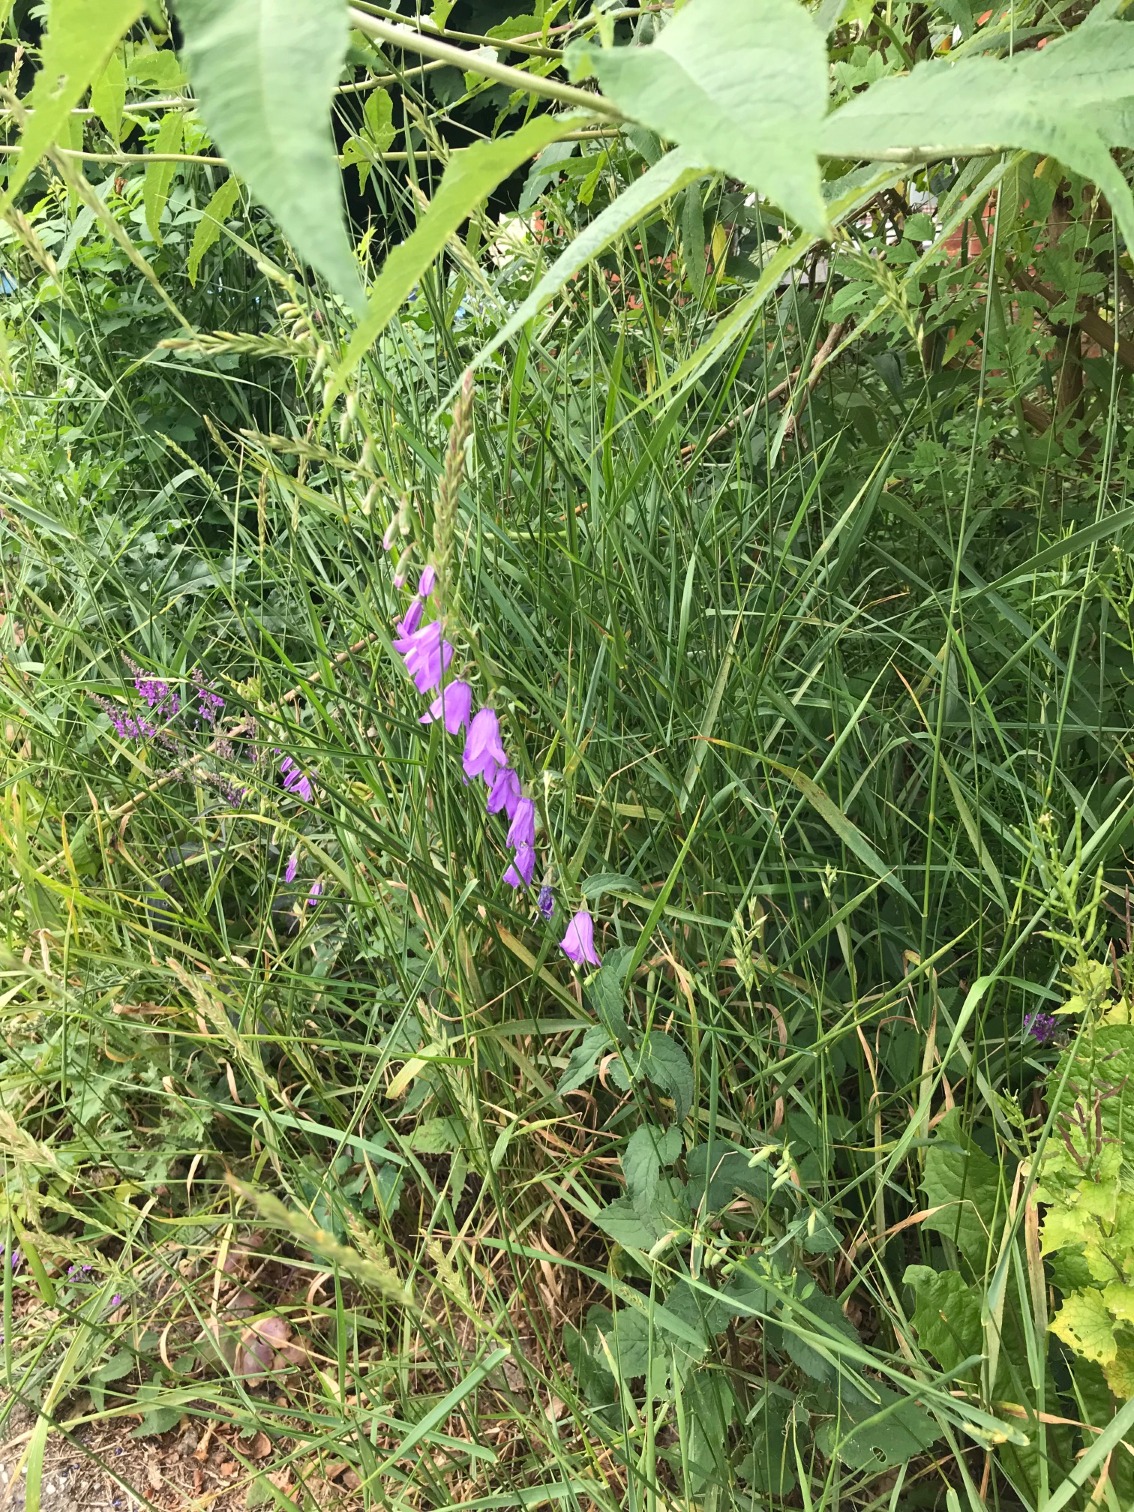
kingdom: Plantae
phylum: Tracheophyta
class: Magnoliopsida
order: Asterales
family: Campanulaceae
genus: Campanula
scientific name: Campanula rapunculoides
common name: Ensidig klokke
